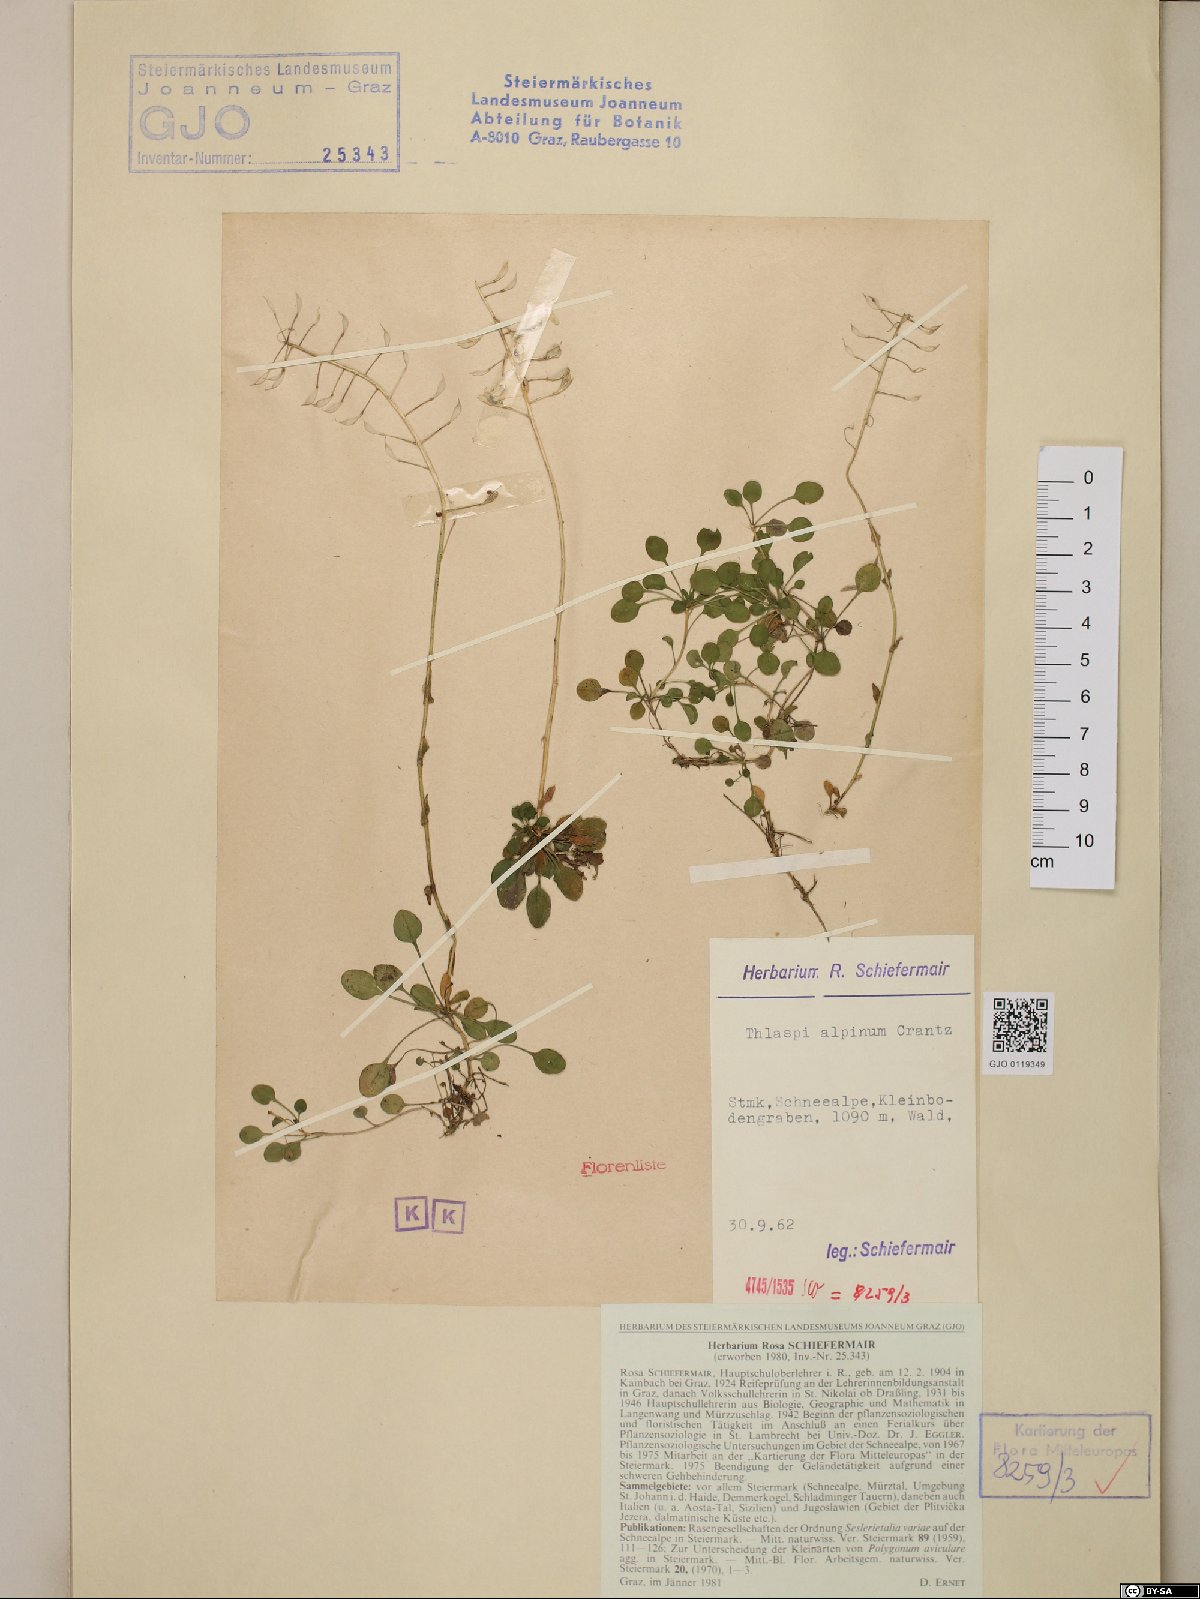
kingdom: Plantae
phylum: Tracheophyta
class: Magnoliopsida
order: Brassicales
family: Brassicaceae
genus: Noccaea
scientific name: Noccaea alpestris
